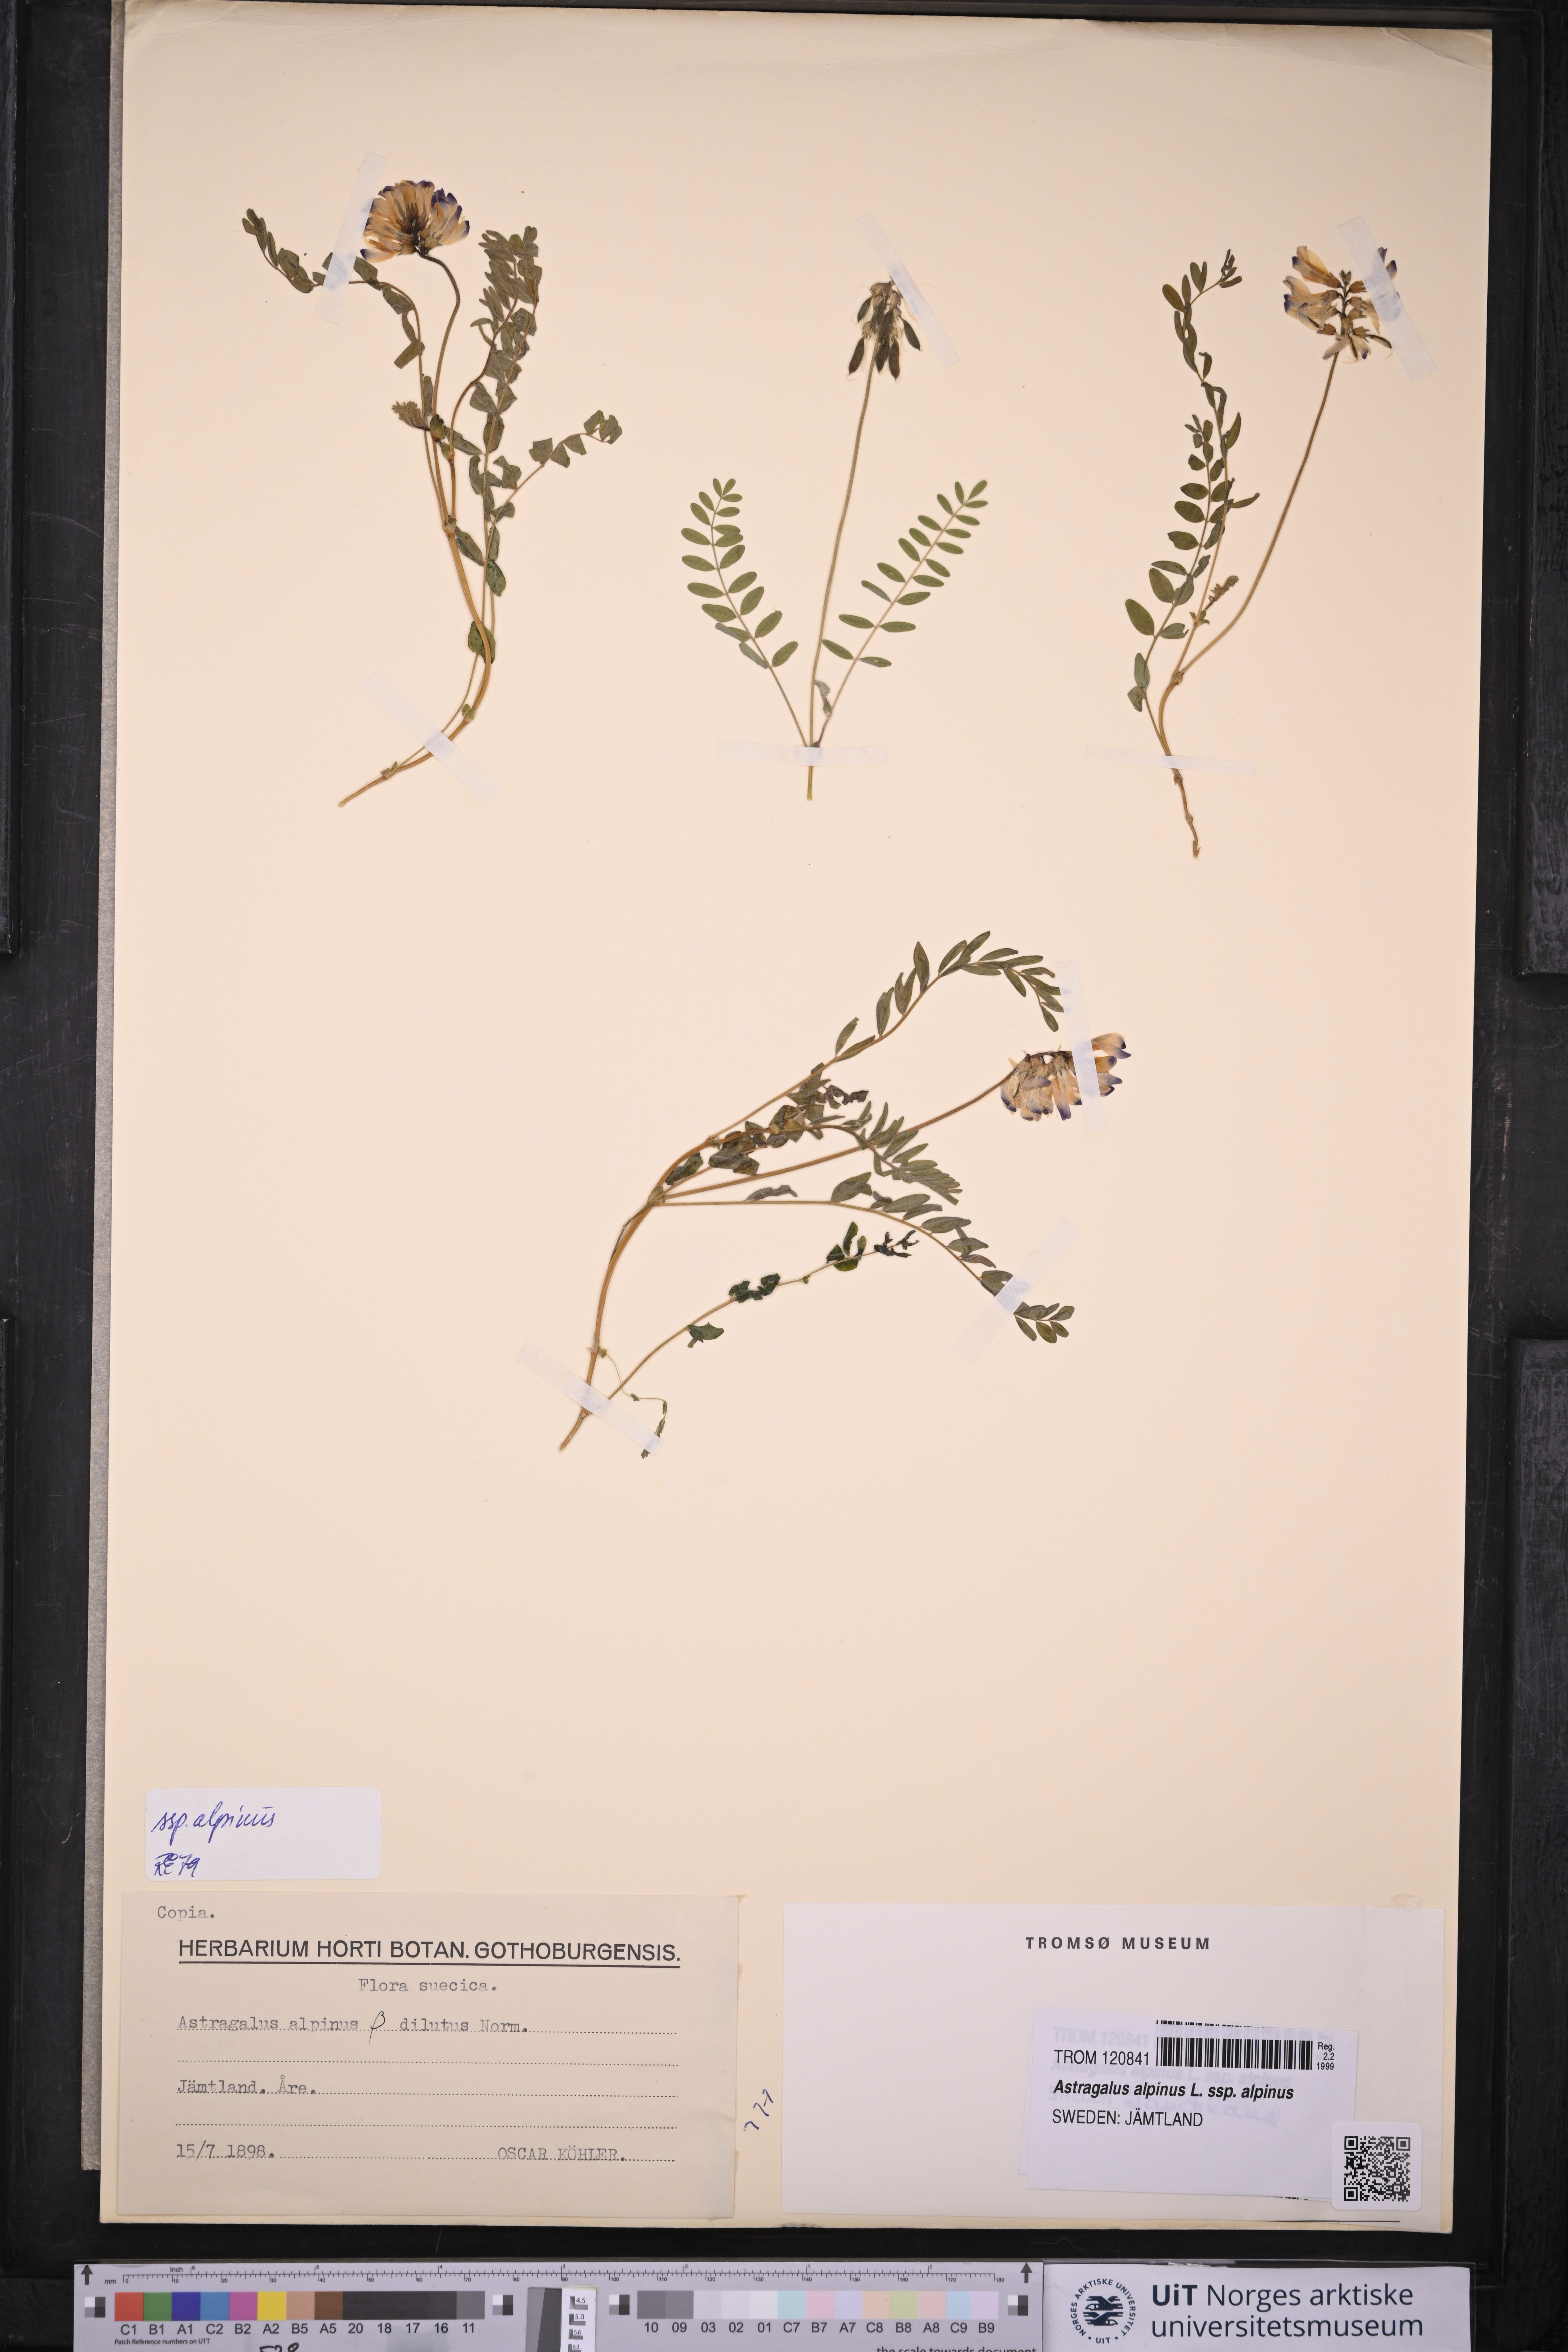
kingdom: Plantae
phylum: Tracheophyta
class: Magnoliopsida
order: Fabales
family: Fabaceae
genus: Astragalus
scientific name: Astragalus alpinus
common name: Alpine milk-vetch
